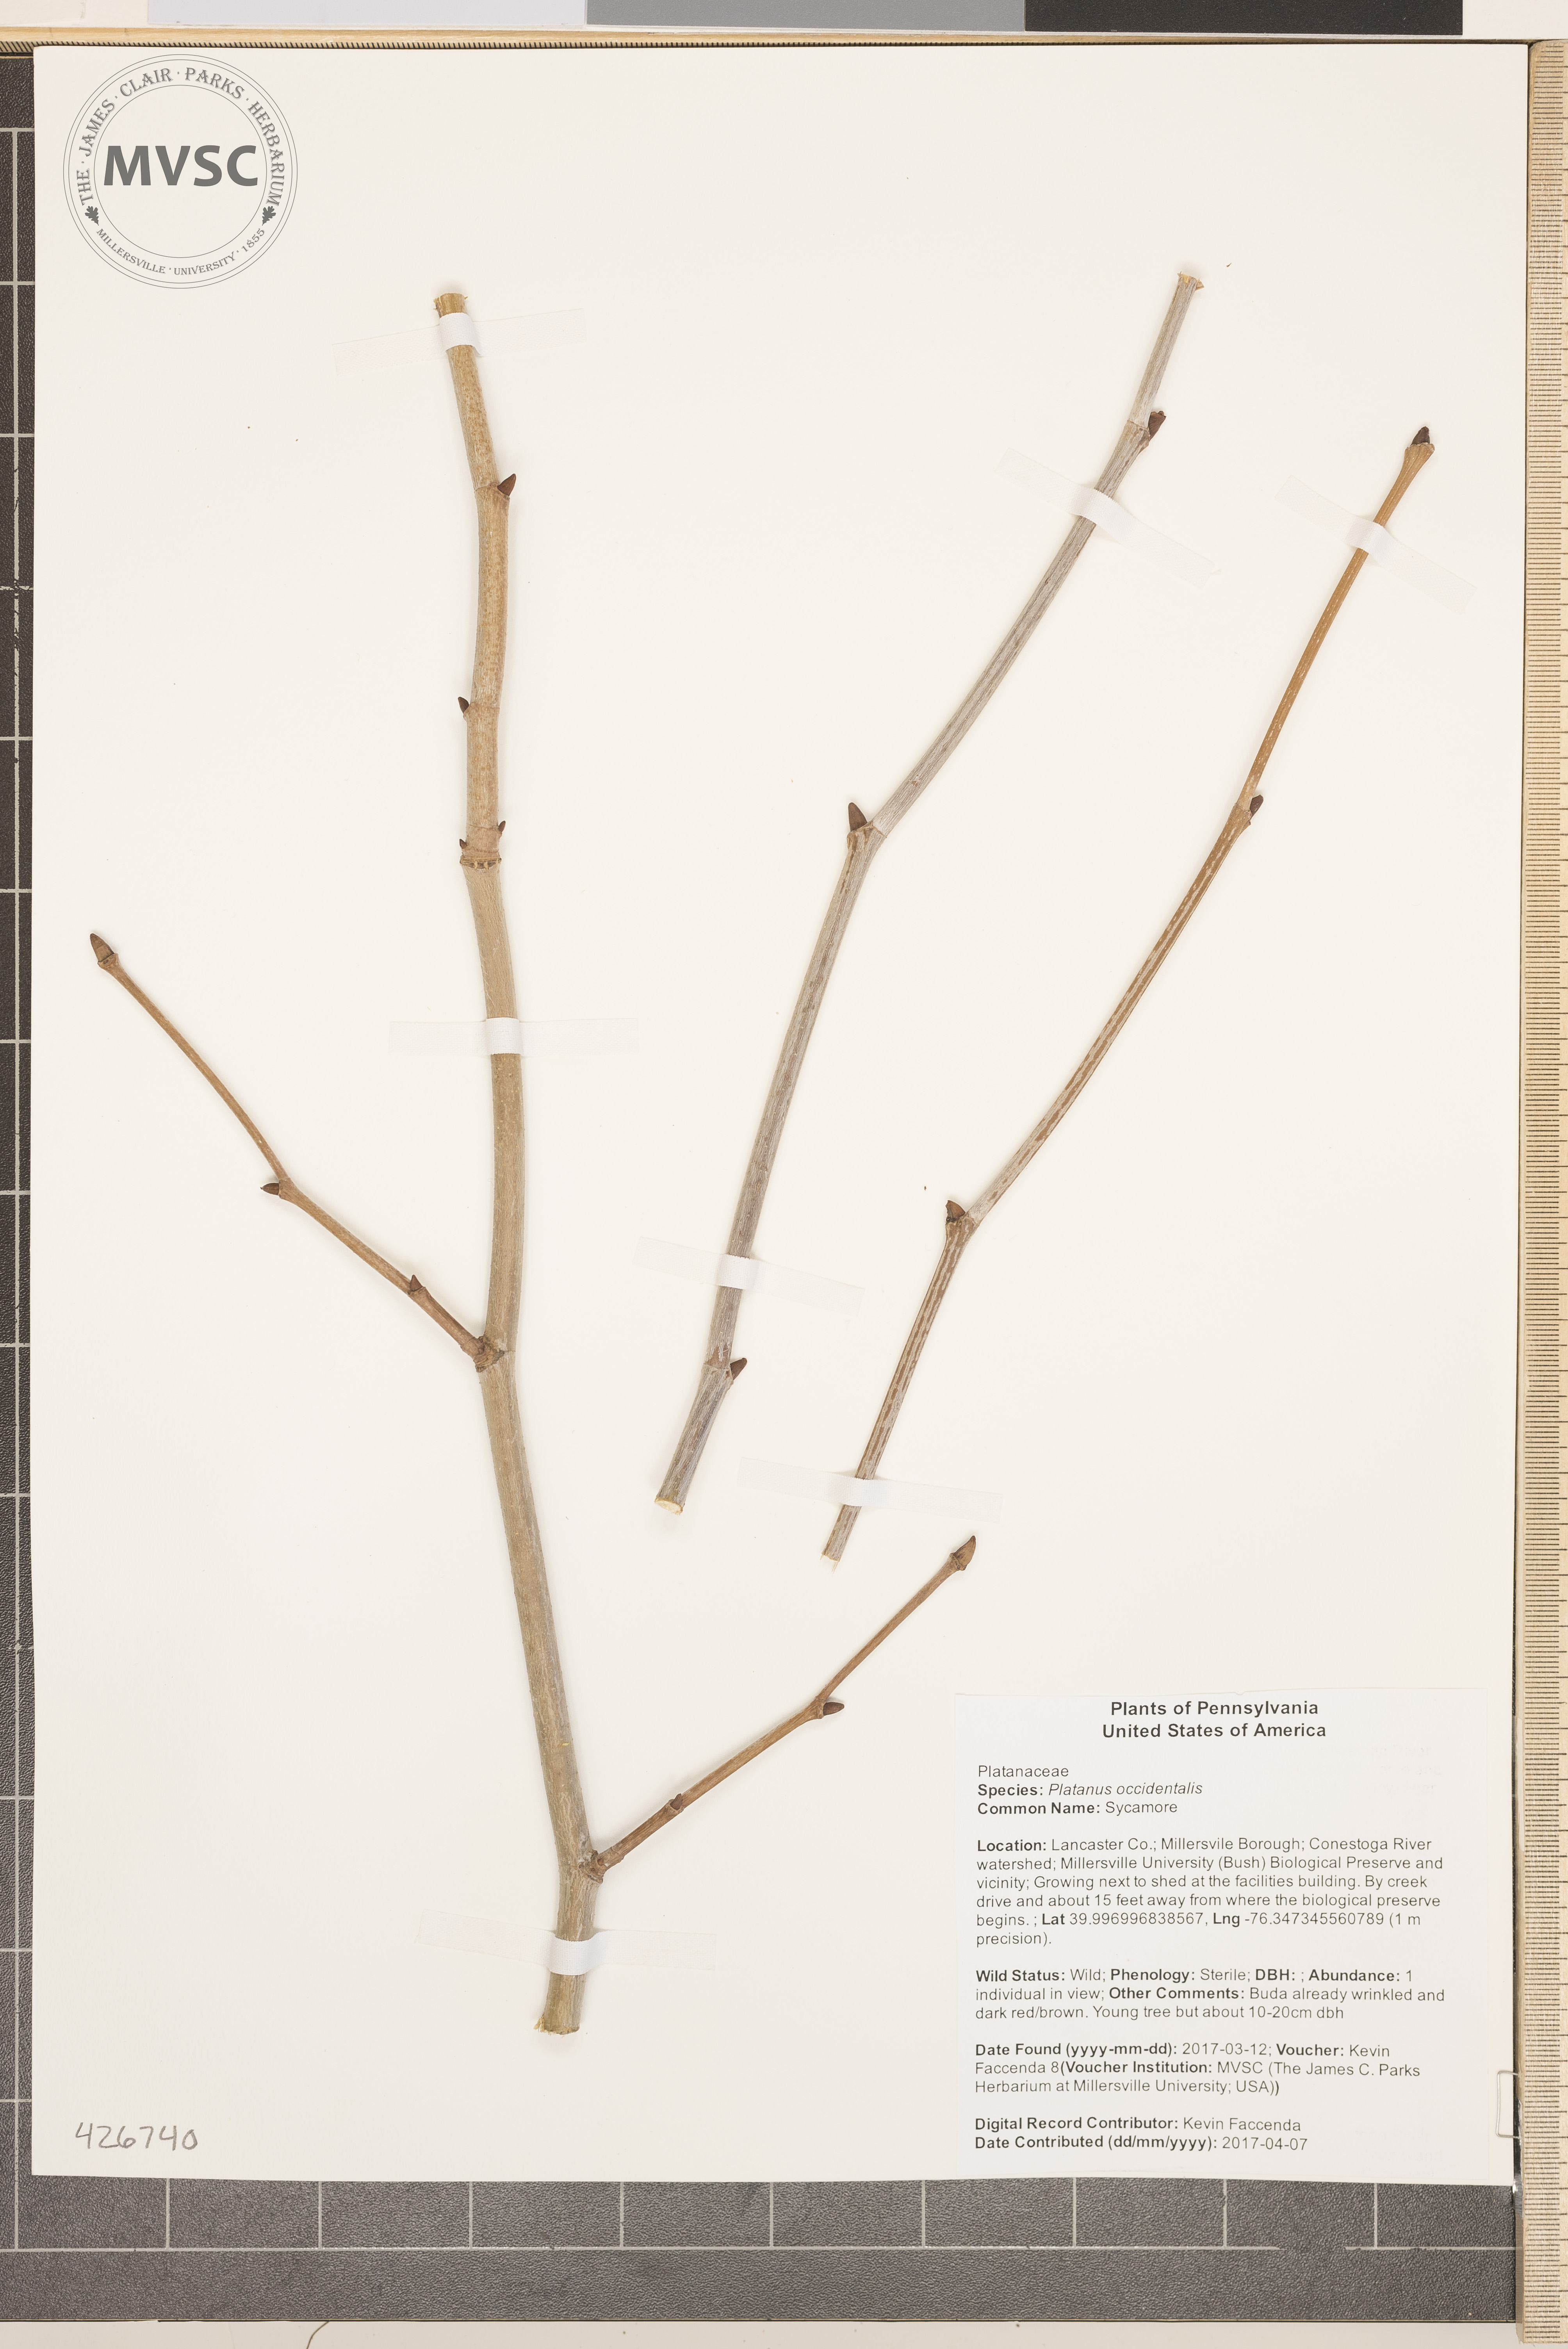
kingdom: Plantae
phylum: Tracheophyta
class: Magnoliopsida
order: Proteales
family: Platanaceae
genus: Platanus
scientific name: Platanus occidentalis
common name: Sycamore
